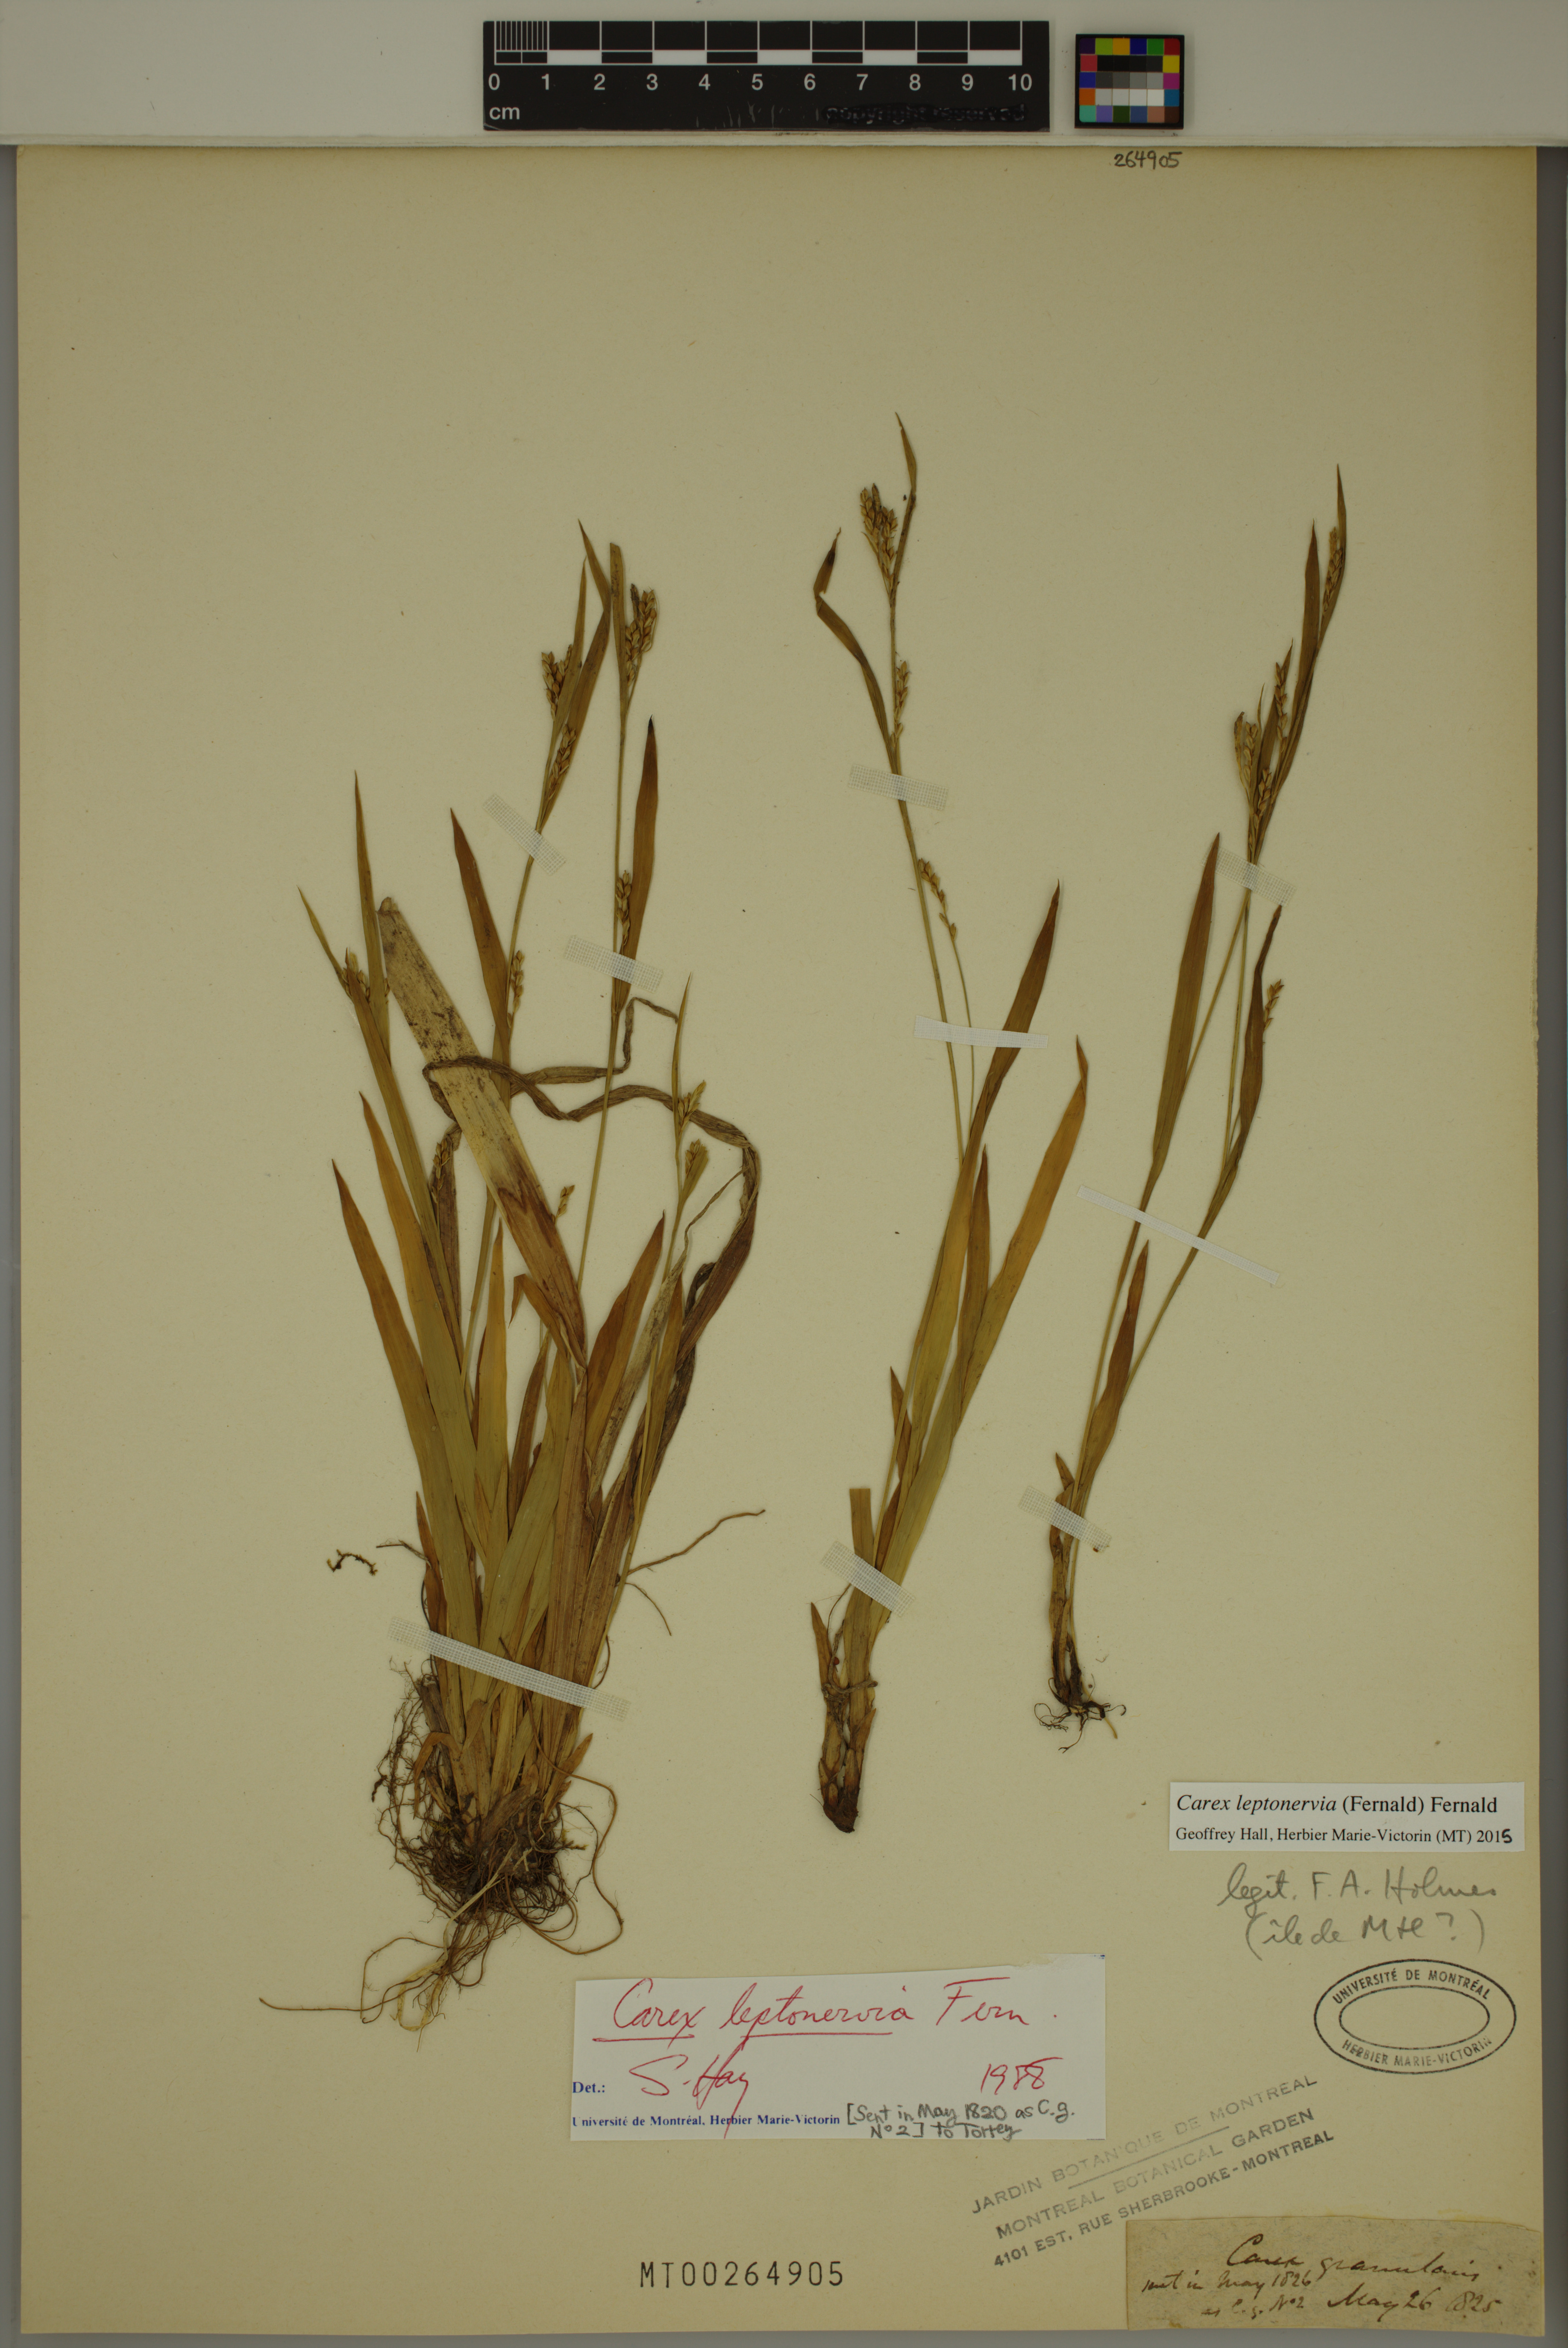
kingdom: Plantae
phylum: Tracheophyta
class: Liliopsida
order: Poales
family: Cyperaceae
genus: Carex
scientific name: Carex leptonervia
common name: Few-nerved wood sedge
